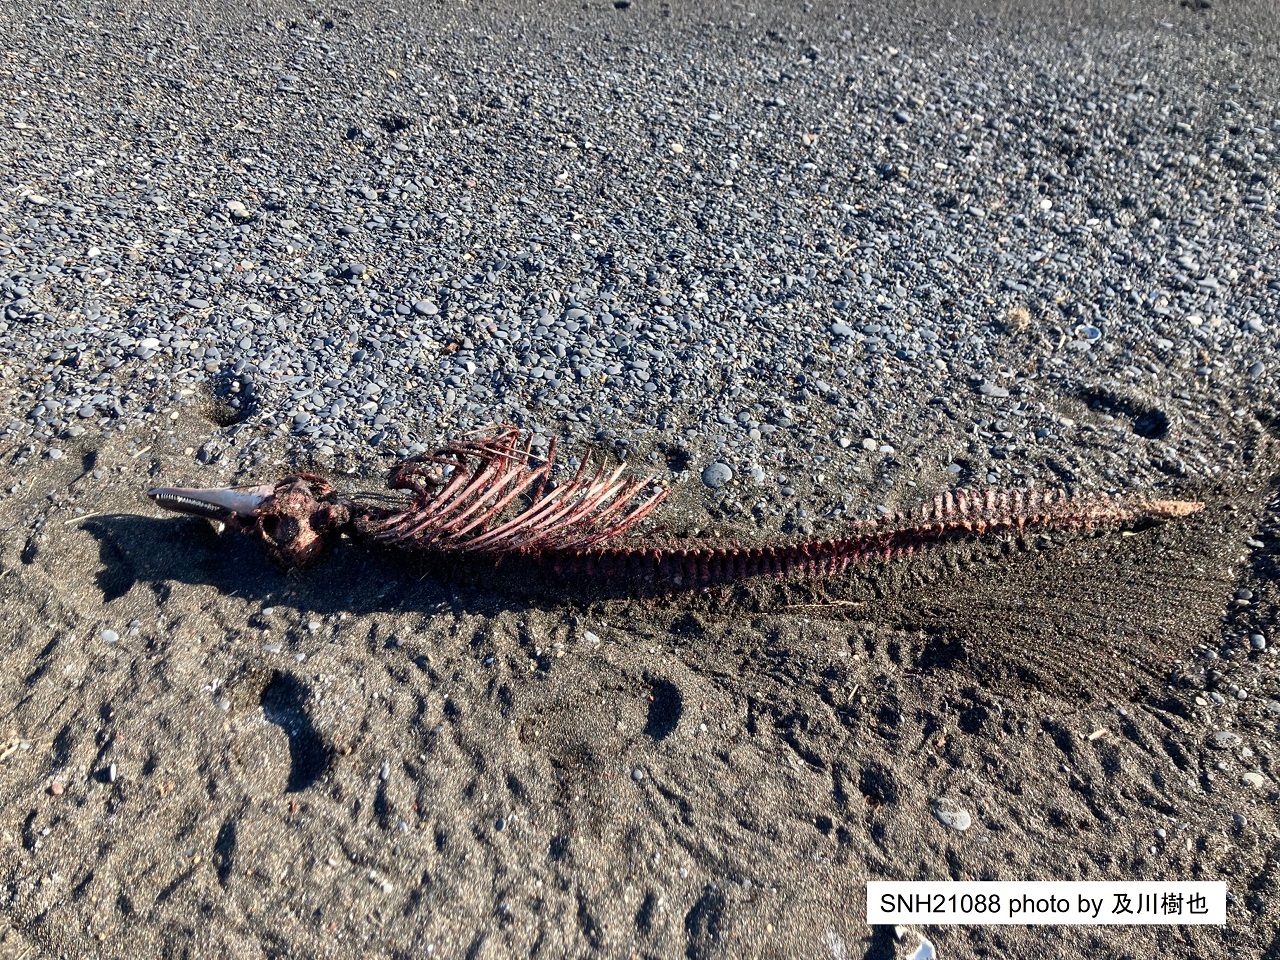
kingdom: Animalia
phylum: Chordata
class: Mammalia
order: Cetacea
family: Delphinidae
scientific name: Delphinidae
